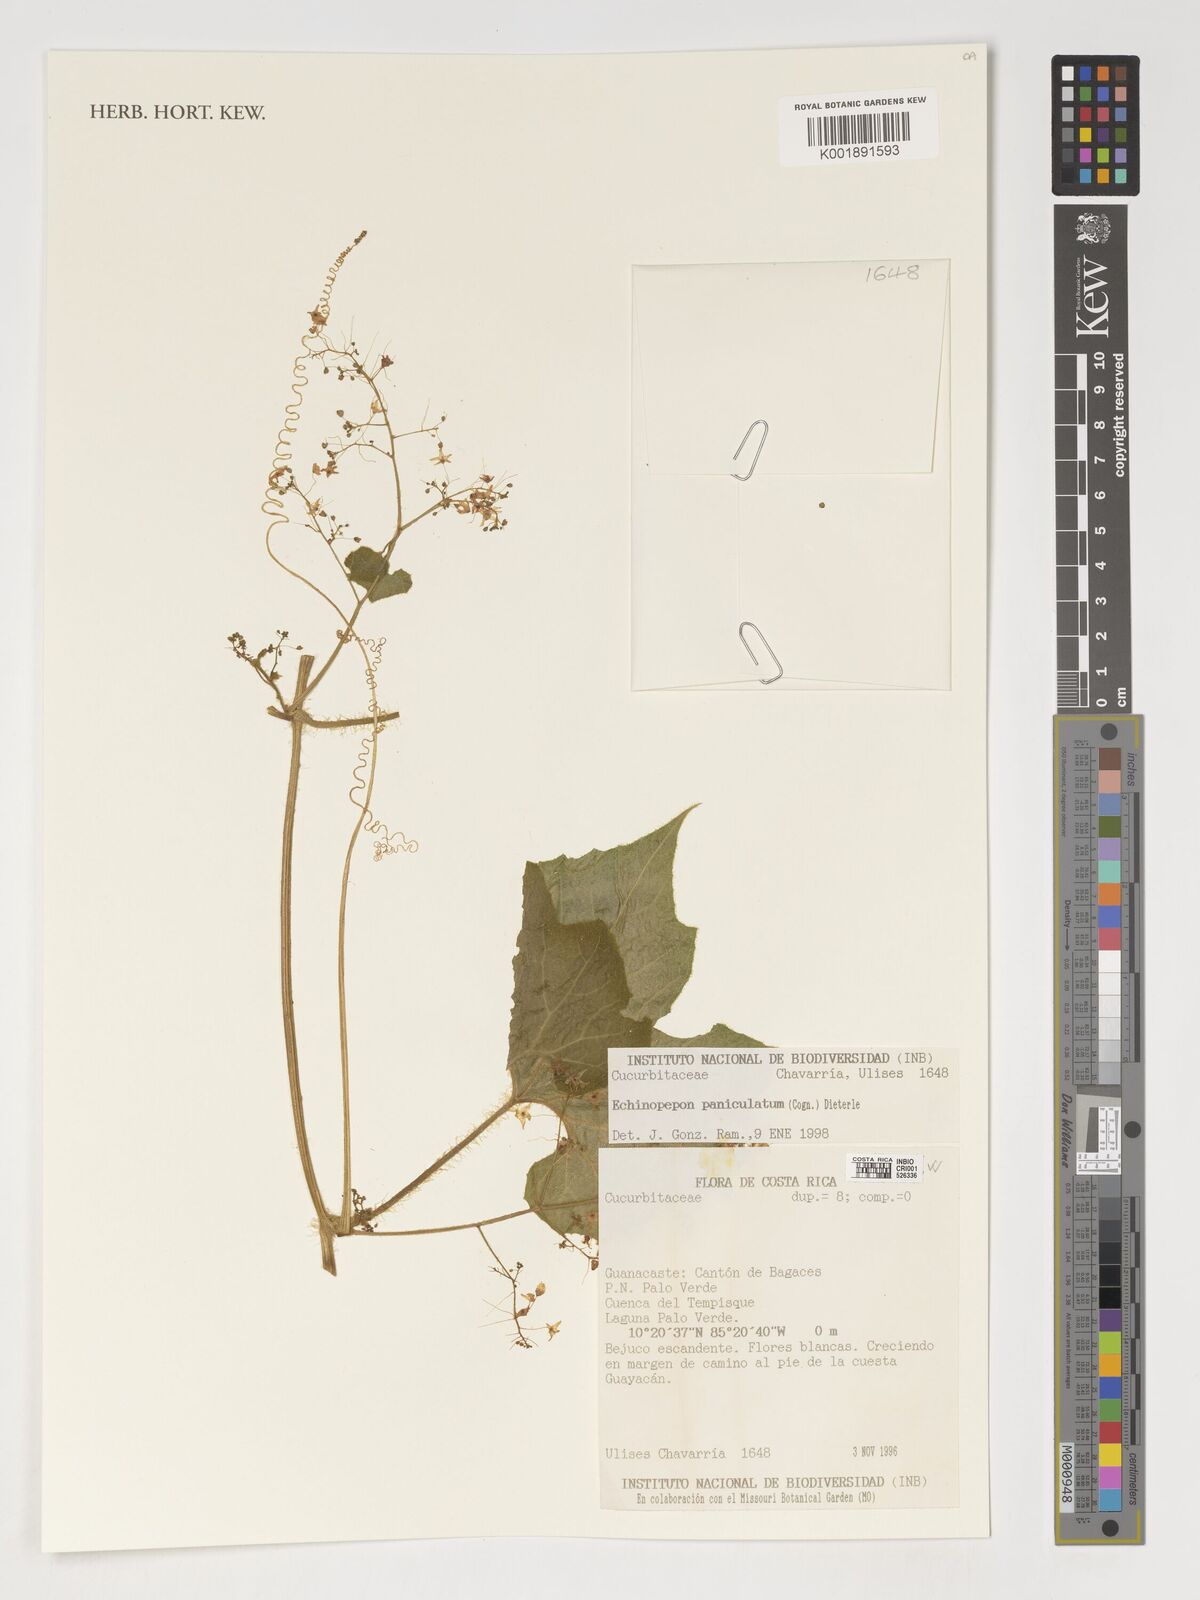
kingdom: Plantae
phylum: Tracheophyta
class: Magnoliopsida
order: Cucurbitales
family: Cucurbitaceae
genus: Echinopepon
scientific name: Echinopepon paniculatus
